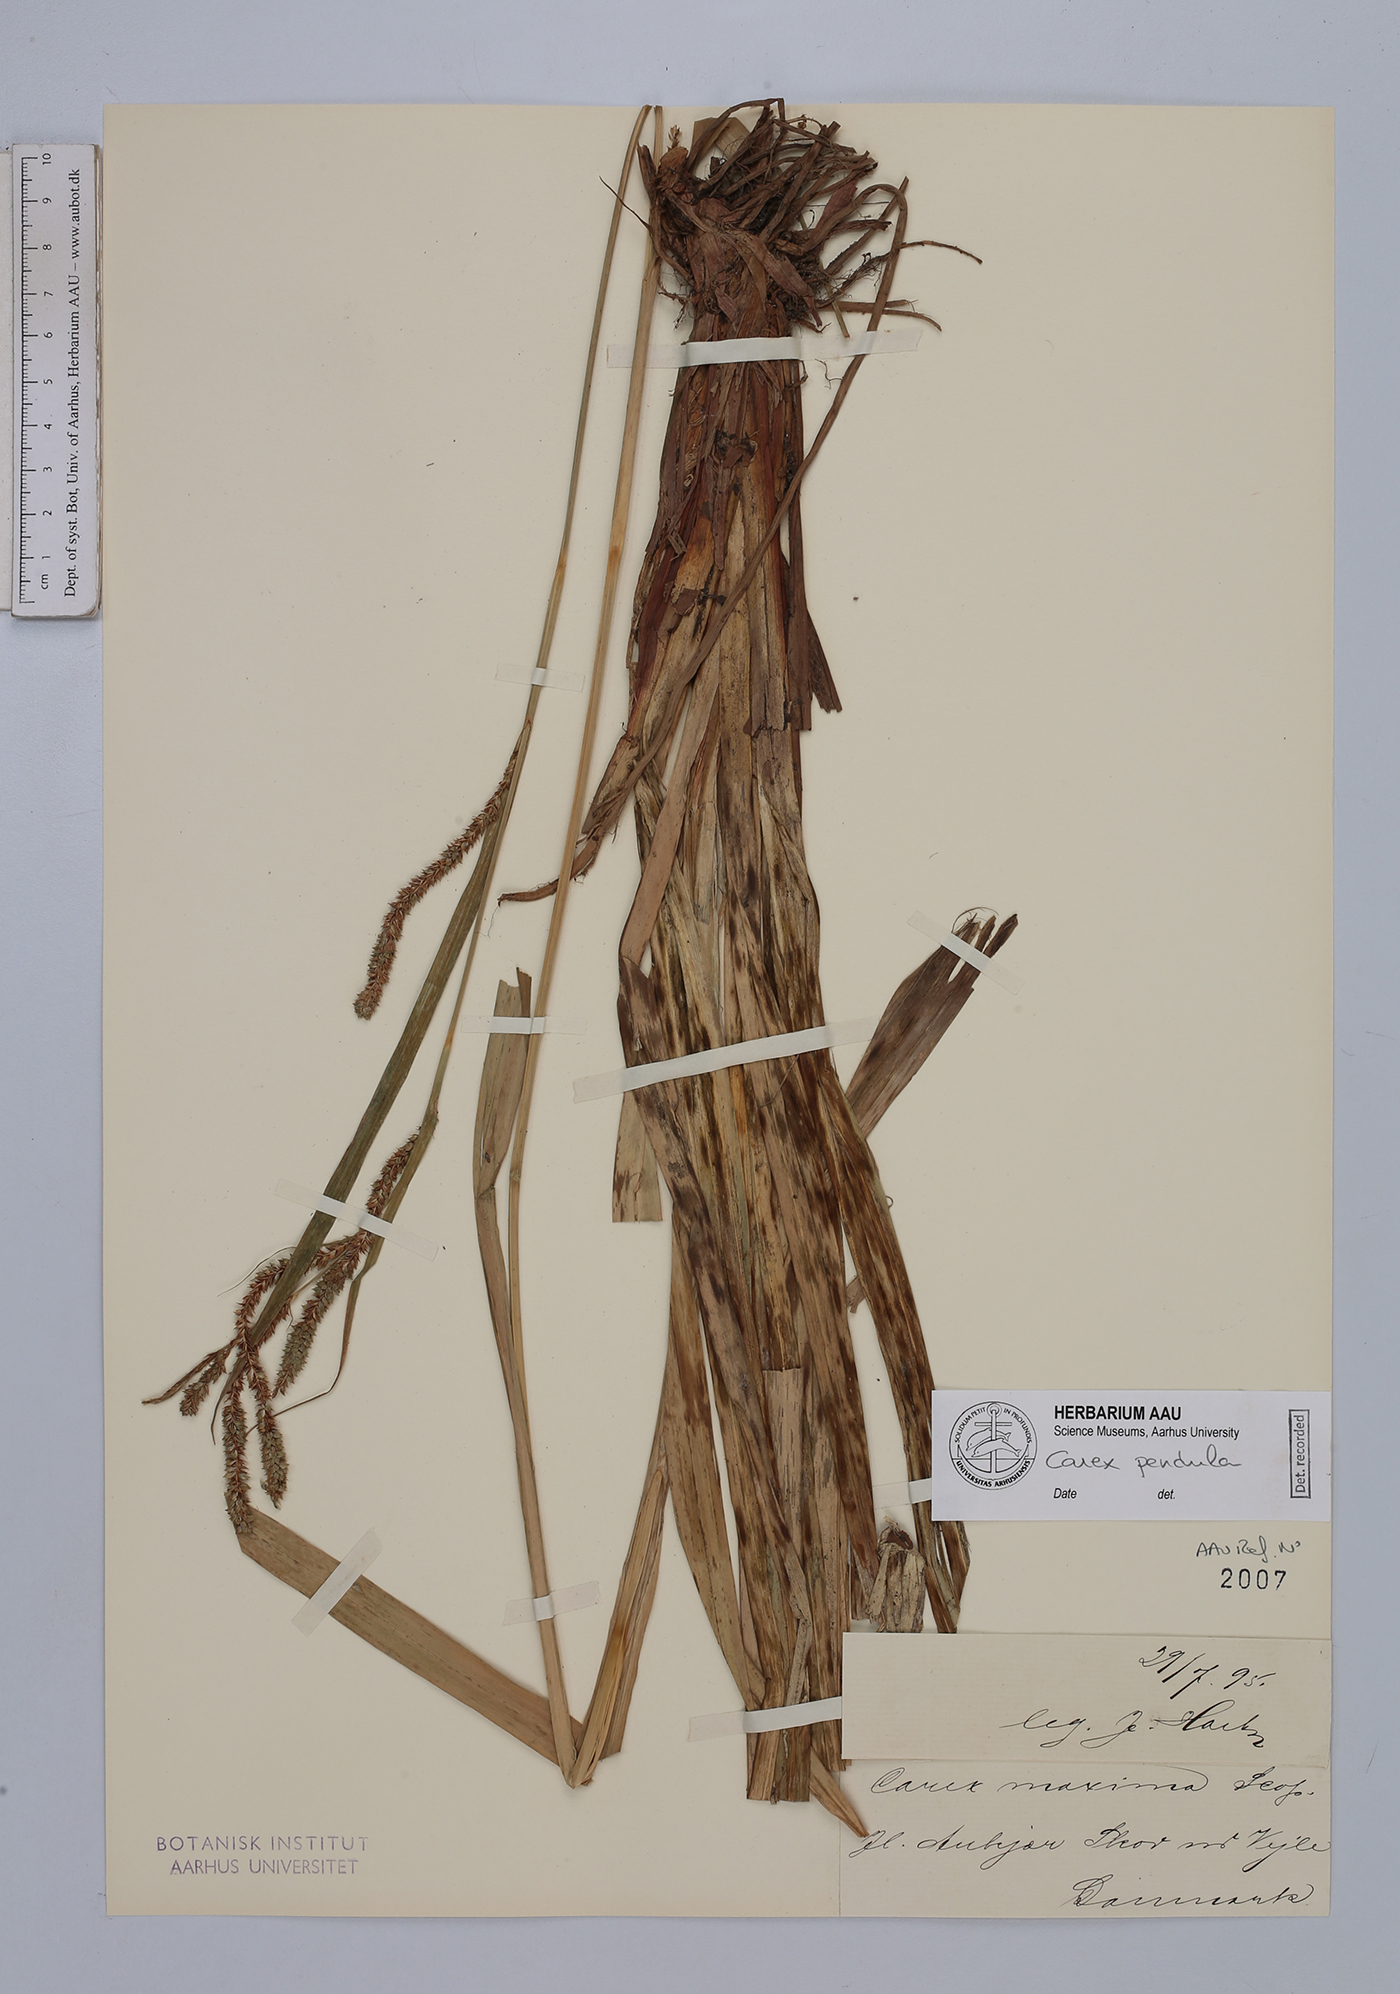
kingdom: Plantae
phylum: Tracheophyta
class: Liliopsida
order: Poales
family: Cyperaceae
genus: Carex
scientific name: Carex pendula
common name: Pendulous sedge
